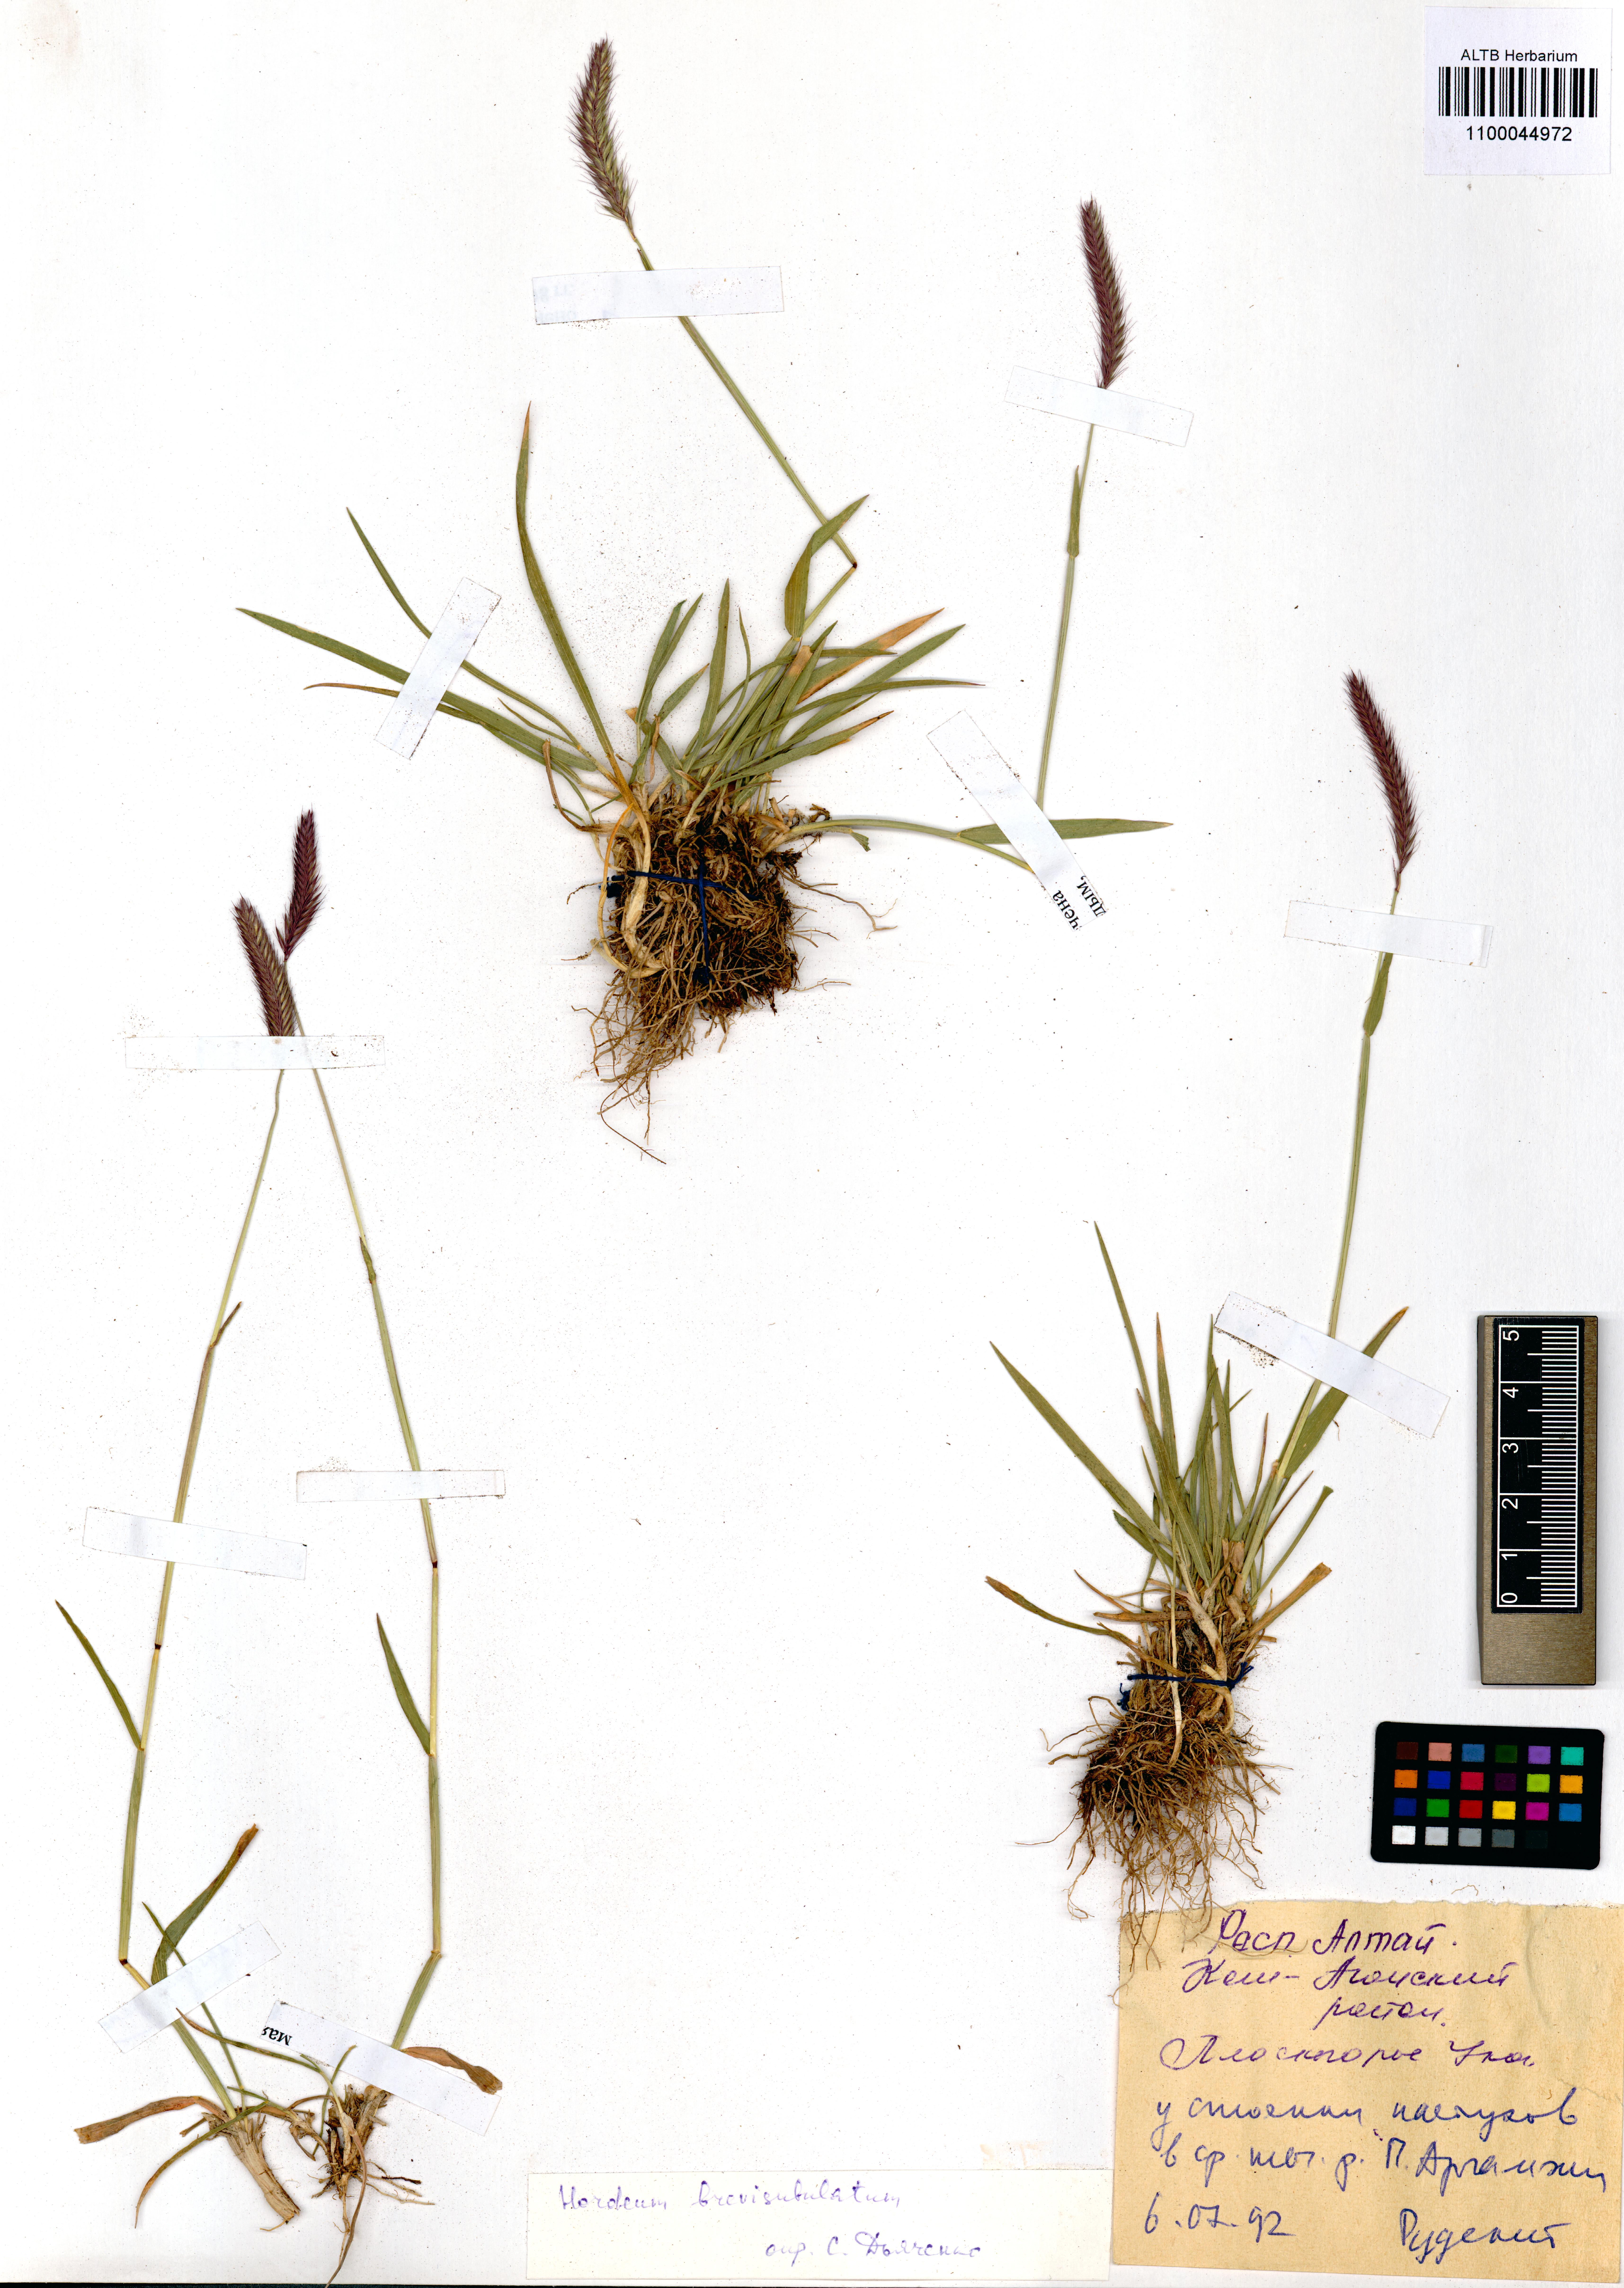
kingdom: Plantae
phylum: Tracheophyta
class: Liliopsida
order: Poales
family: Poaceae
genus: Hordeum
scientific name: Hordeum brevisubulatum
